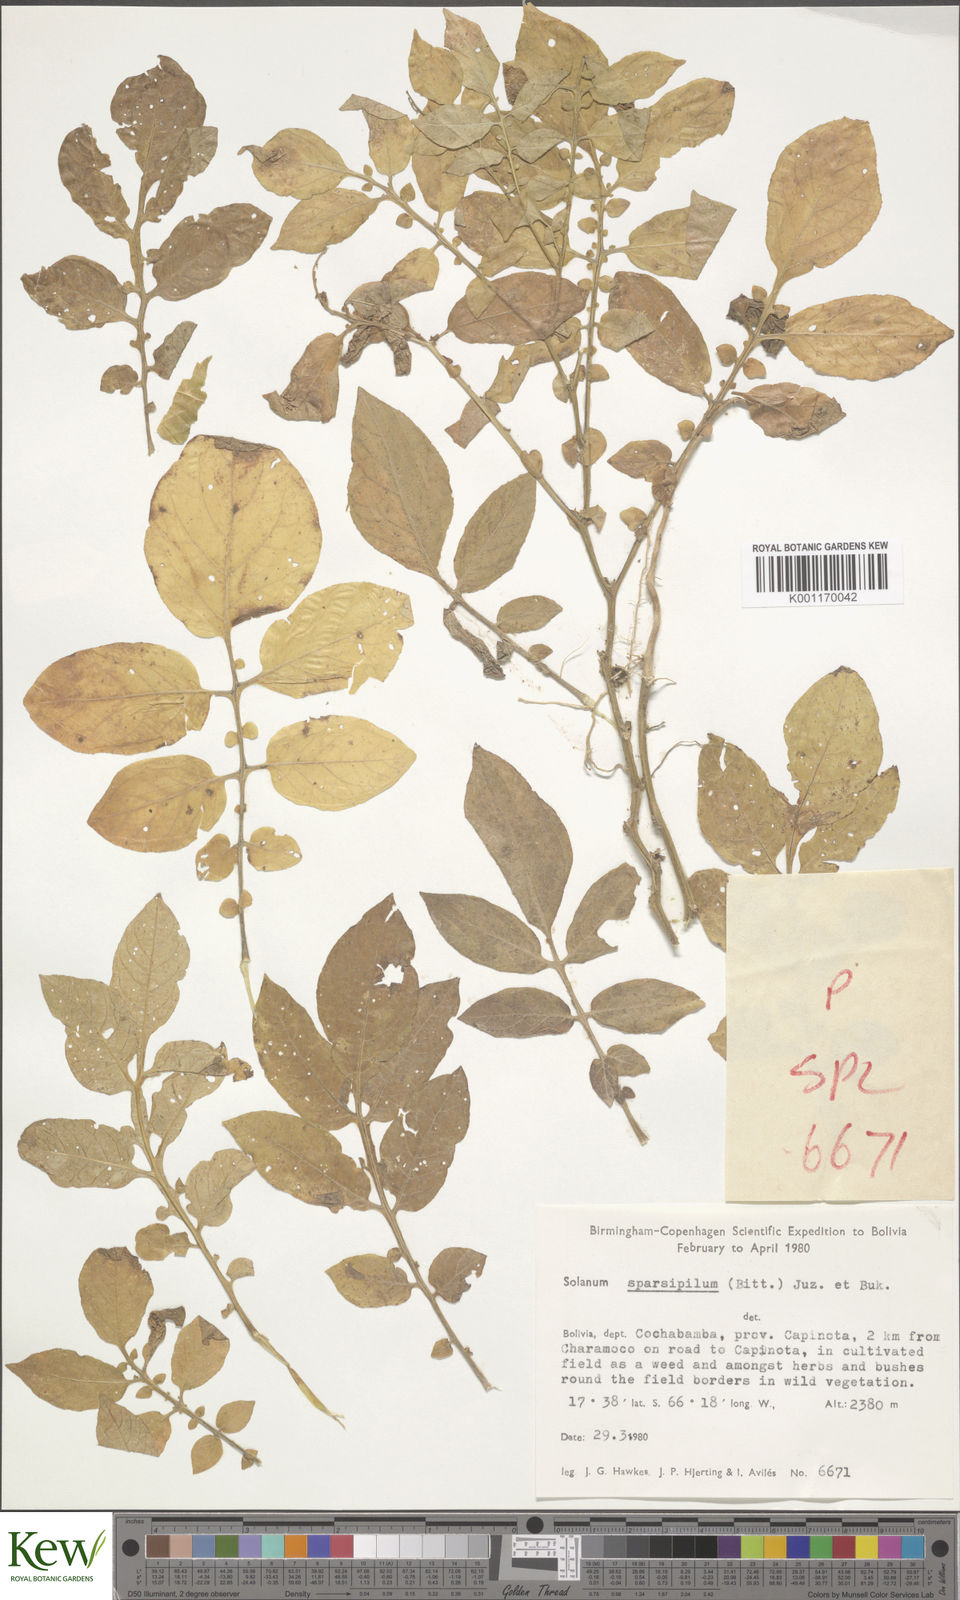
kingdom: Plantae
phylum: Tracheophyta
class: Magnoliopsida
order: Solanales
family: Solanaceae
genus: Solanum
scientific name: Solanum brevicaule
